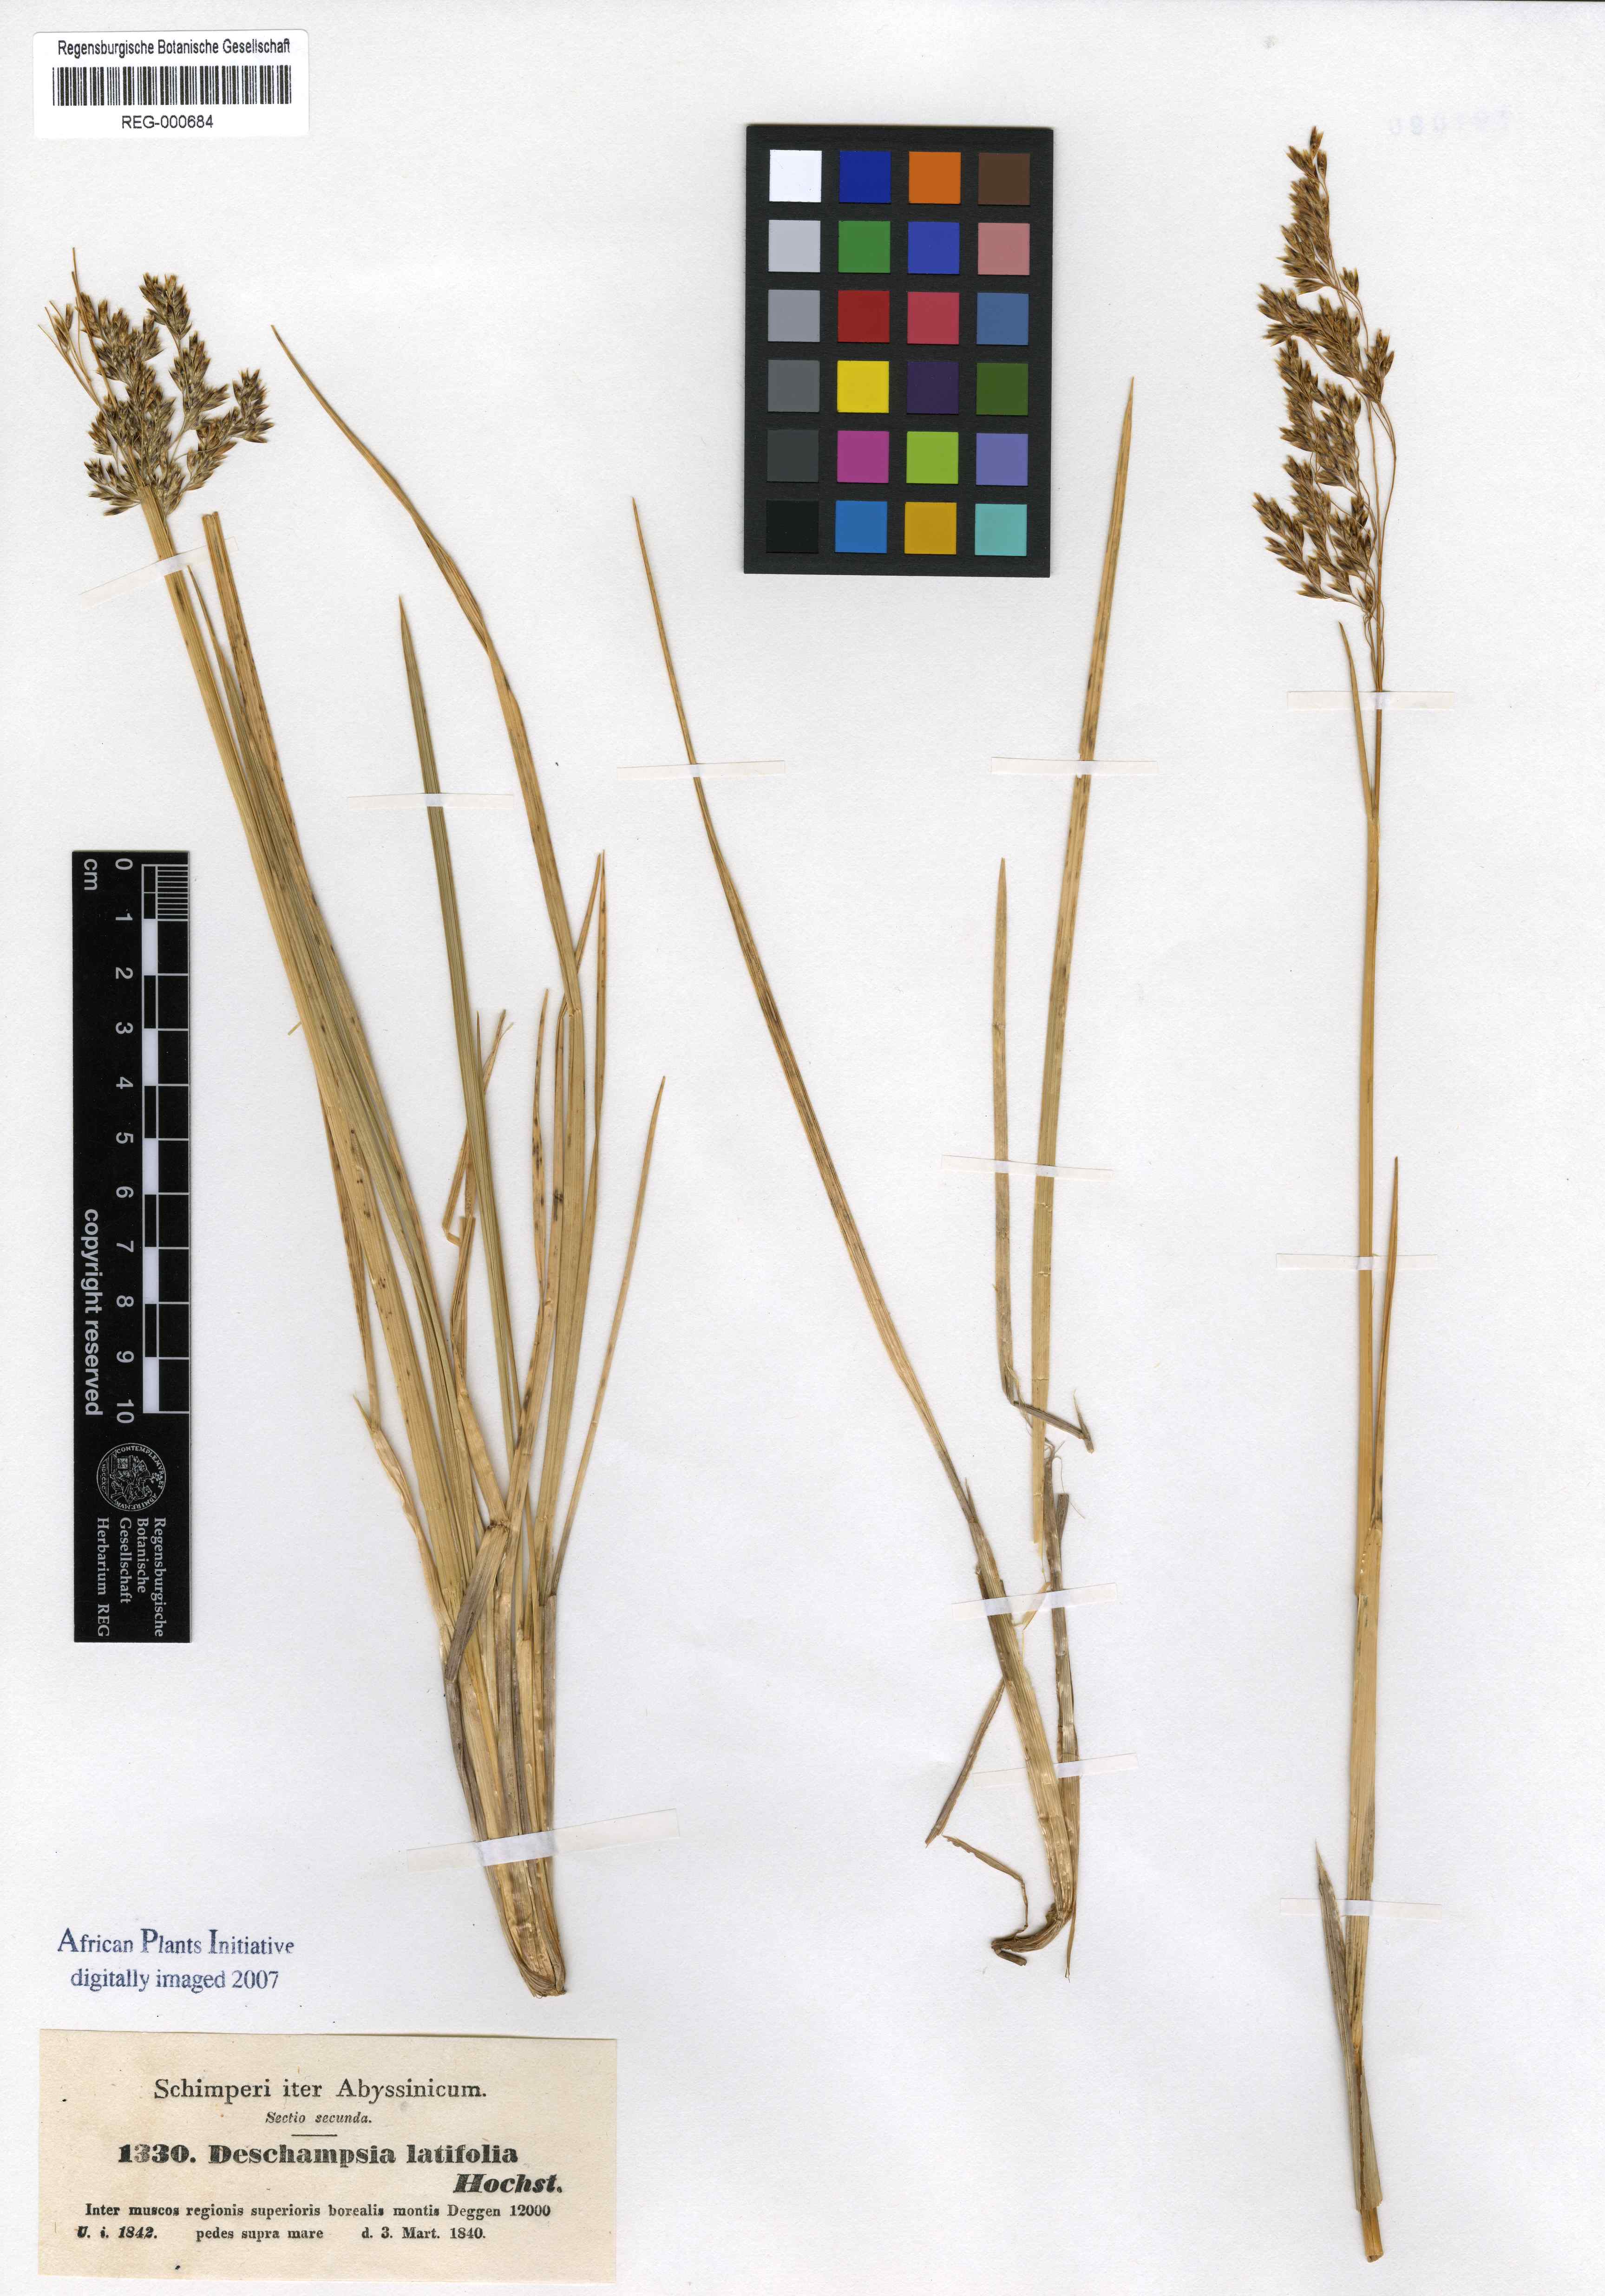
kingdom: Plantae
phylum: Tracheophyta
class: Liliopsida
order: Poales
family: Poaceae
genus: Deschampsia
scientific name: Deschampsia cespitosa
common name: Tufted hair-grass
